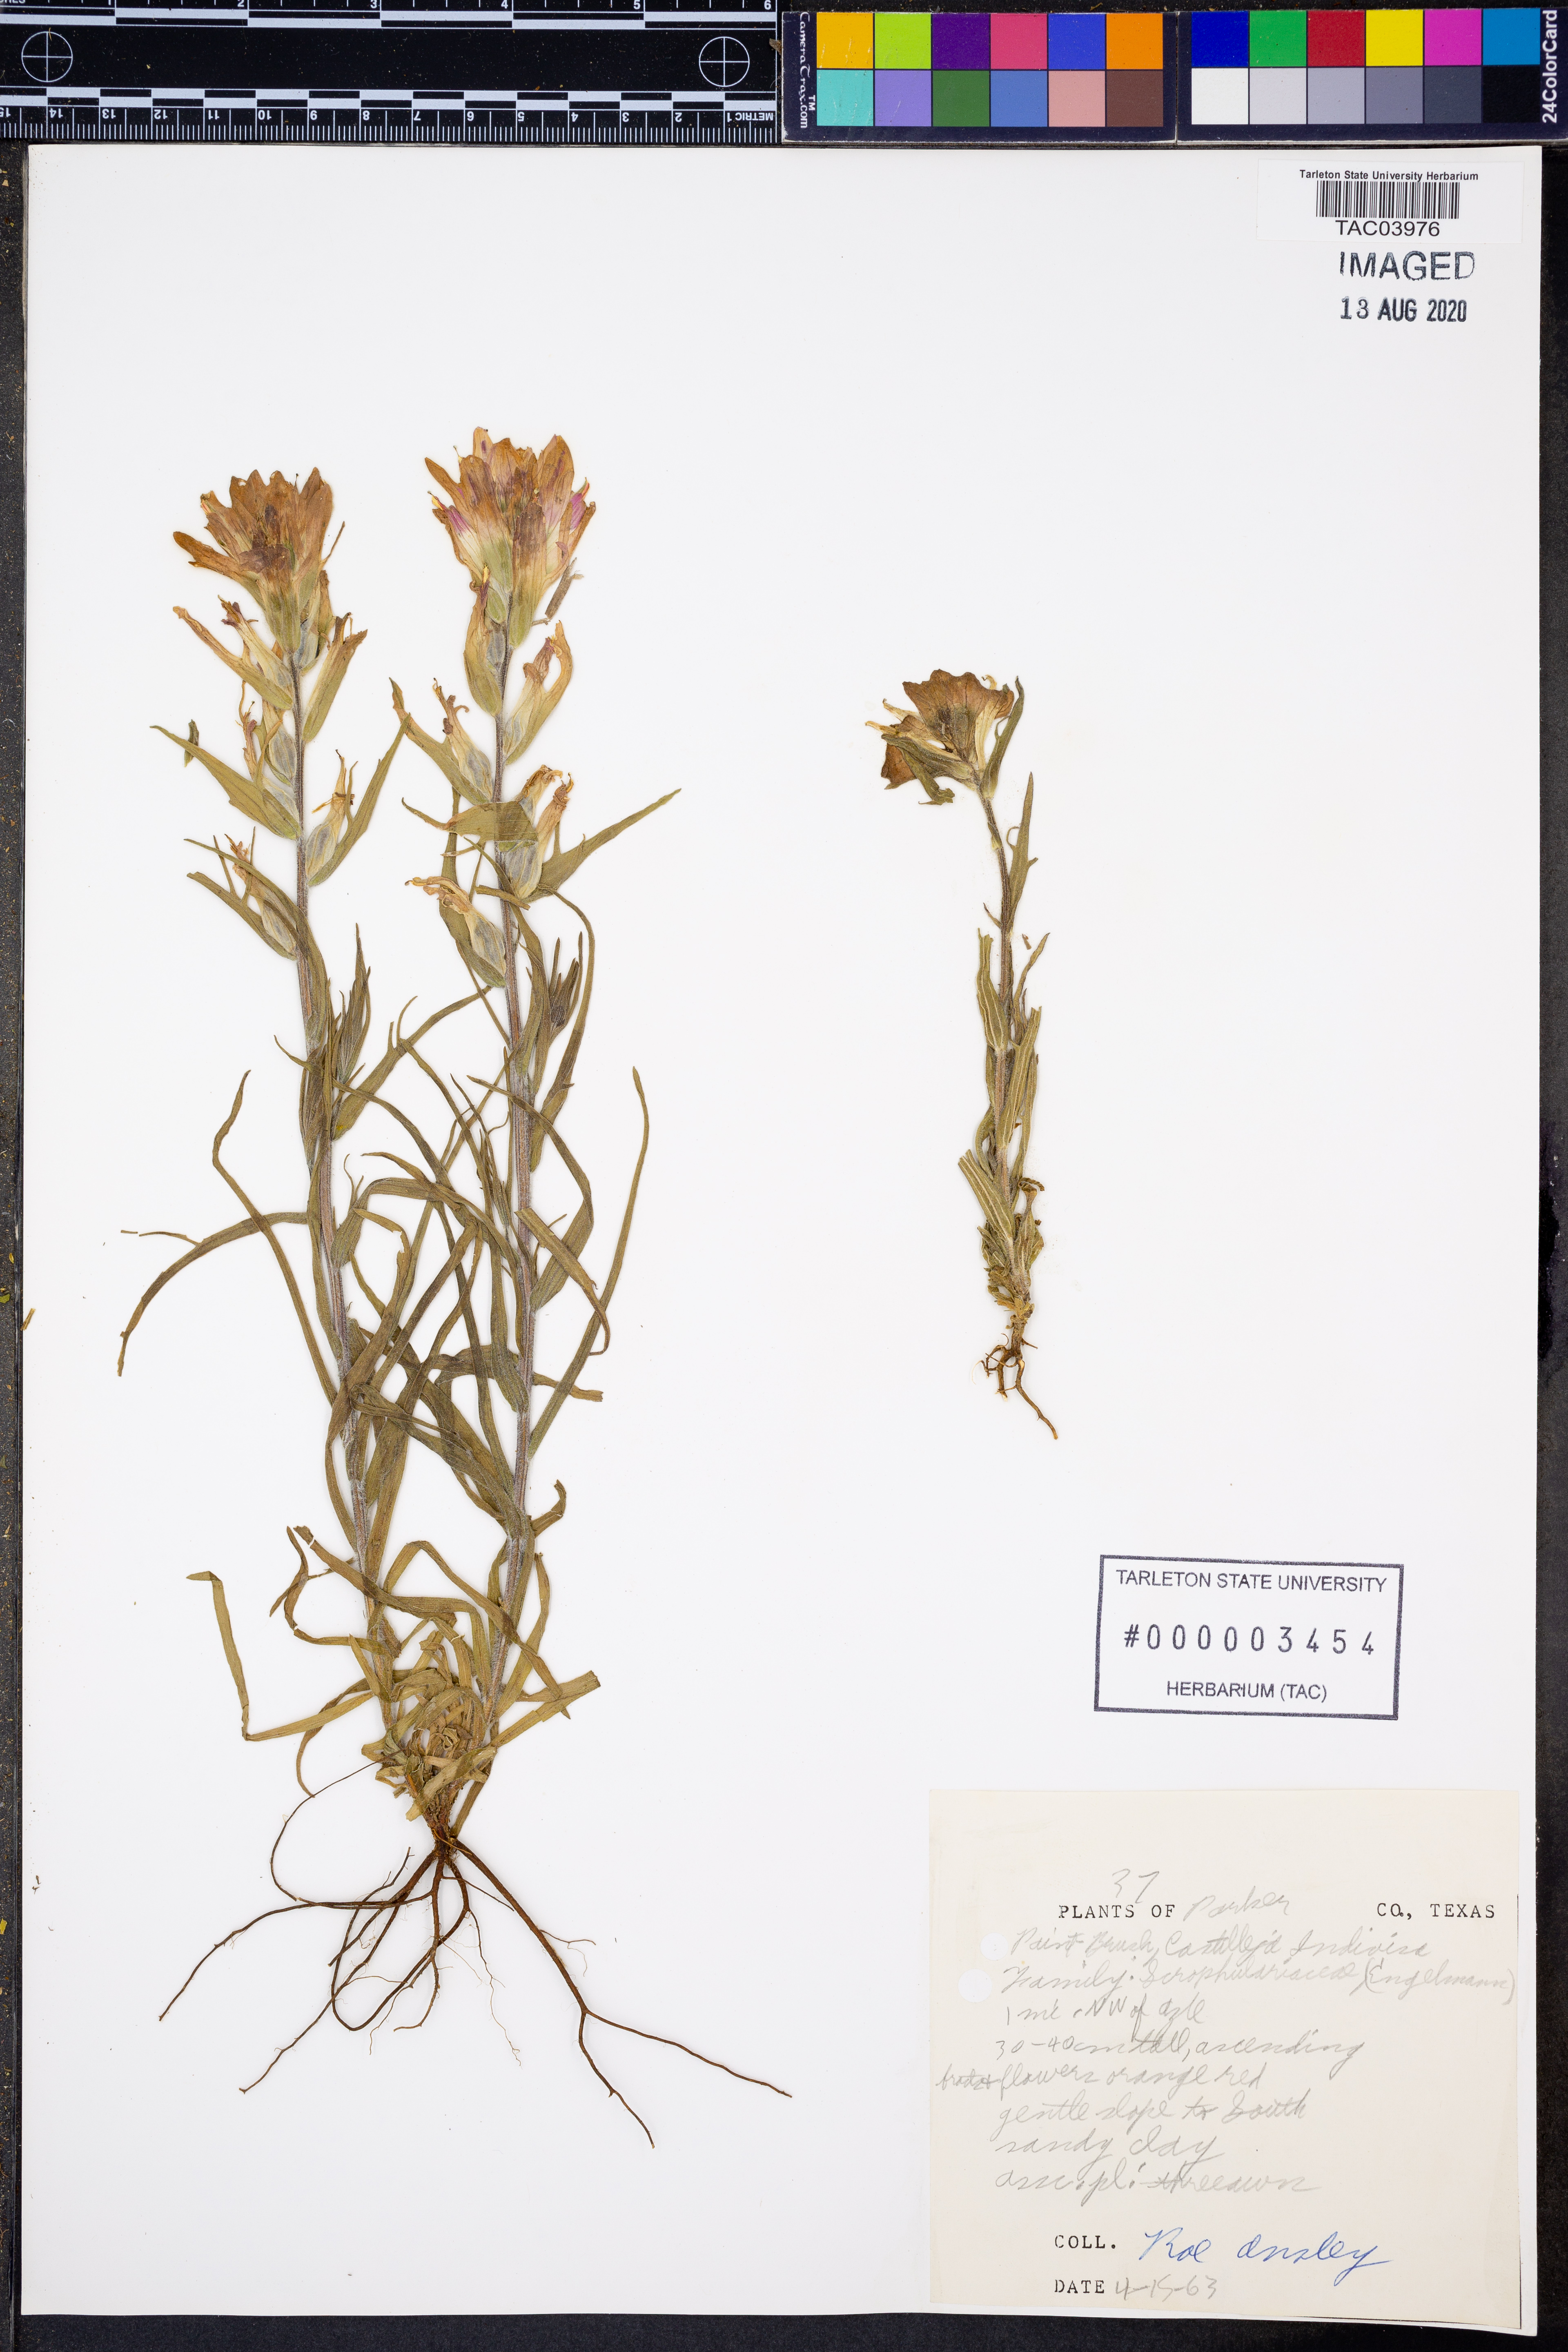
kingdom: Plantae
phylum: Tracheophyta
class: Magnoliopsida
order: Lamiales
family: Orobanchaceae
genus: Castilleja
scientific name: Castilleja indivisa
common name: Texas paintbrush
